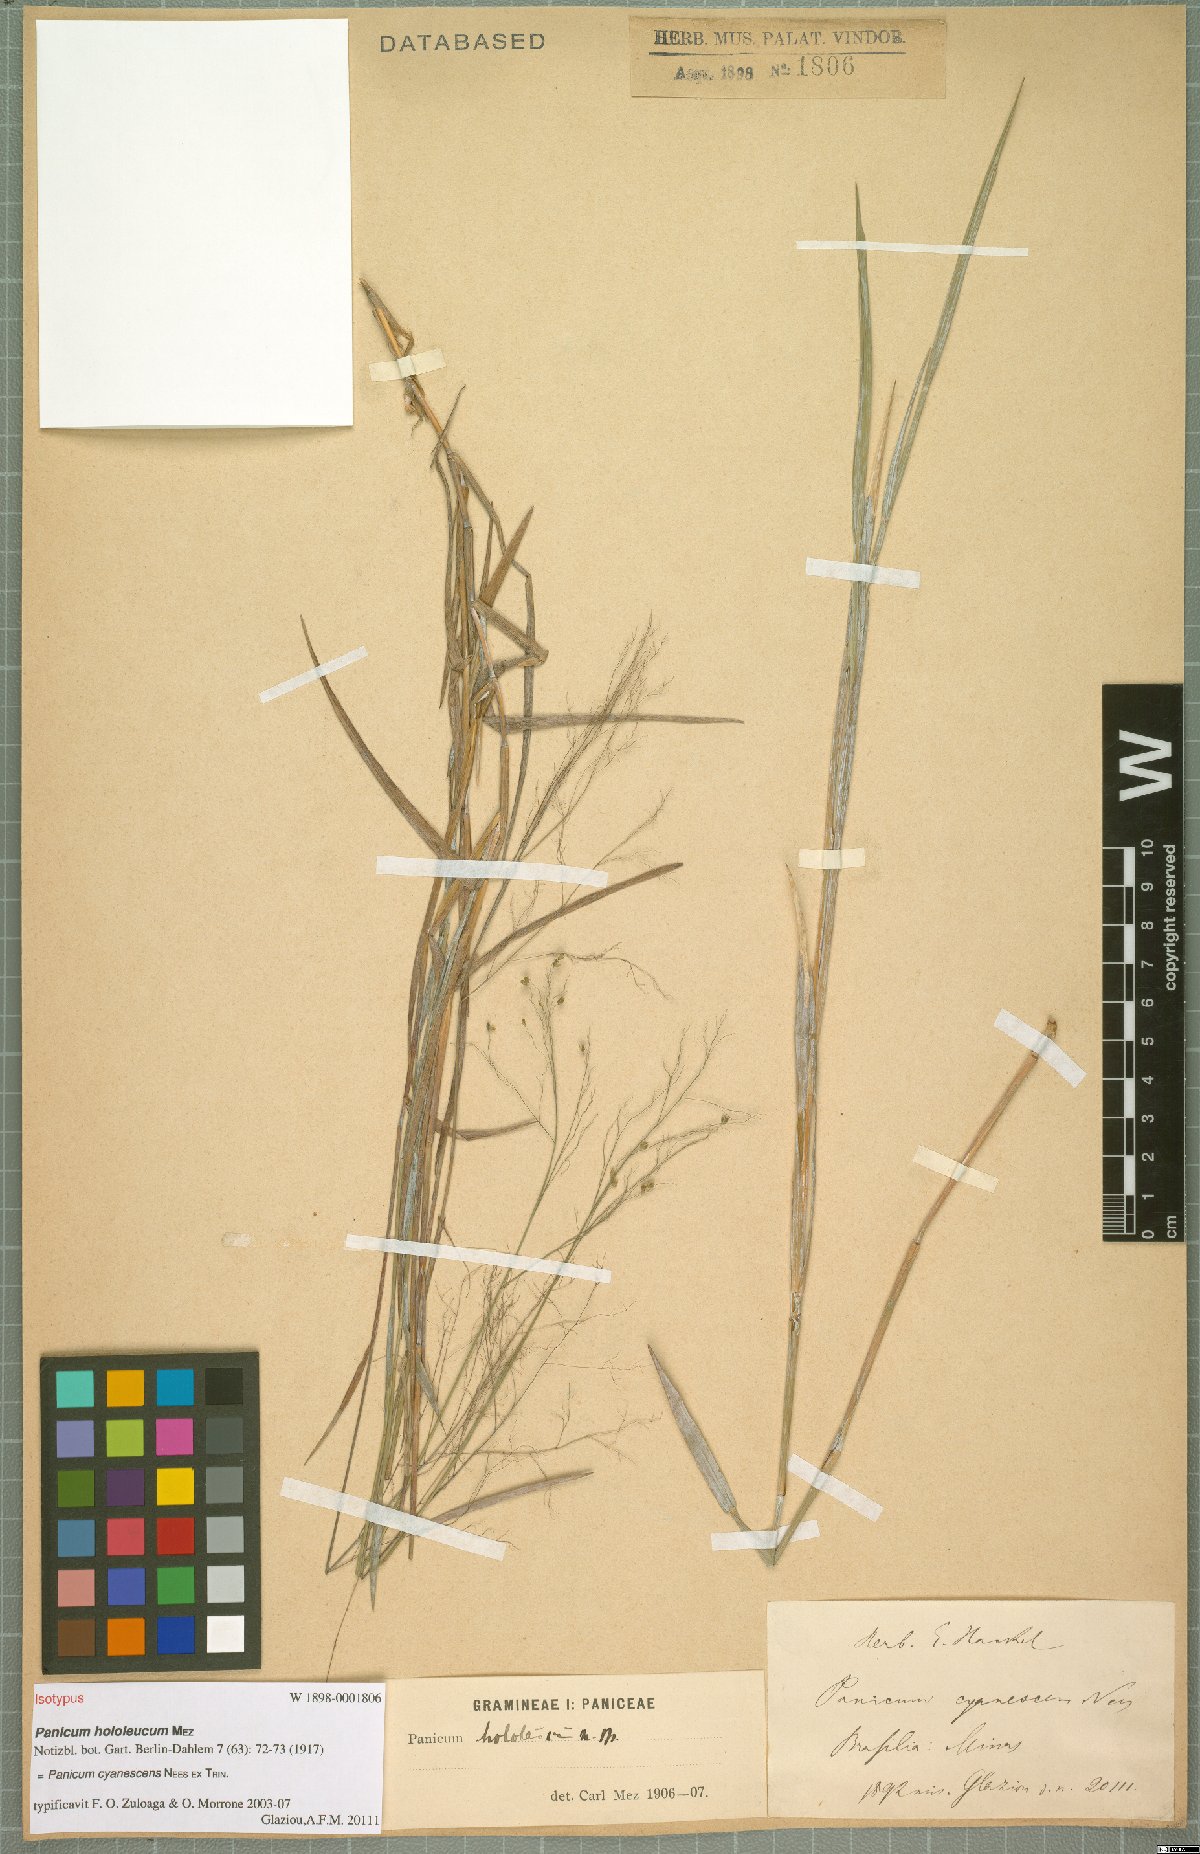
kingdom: Plantae
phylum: Tracheophyta
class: Liliopsida
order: Poales
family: Poaceae
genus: Trichanthecium
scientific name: Trichanthecium cyanescens
